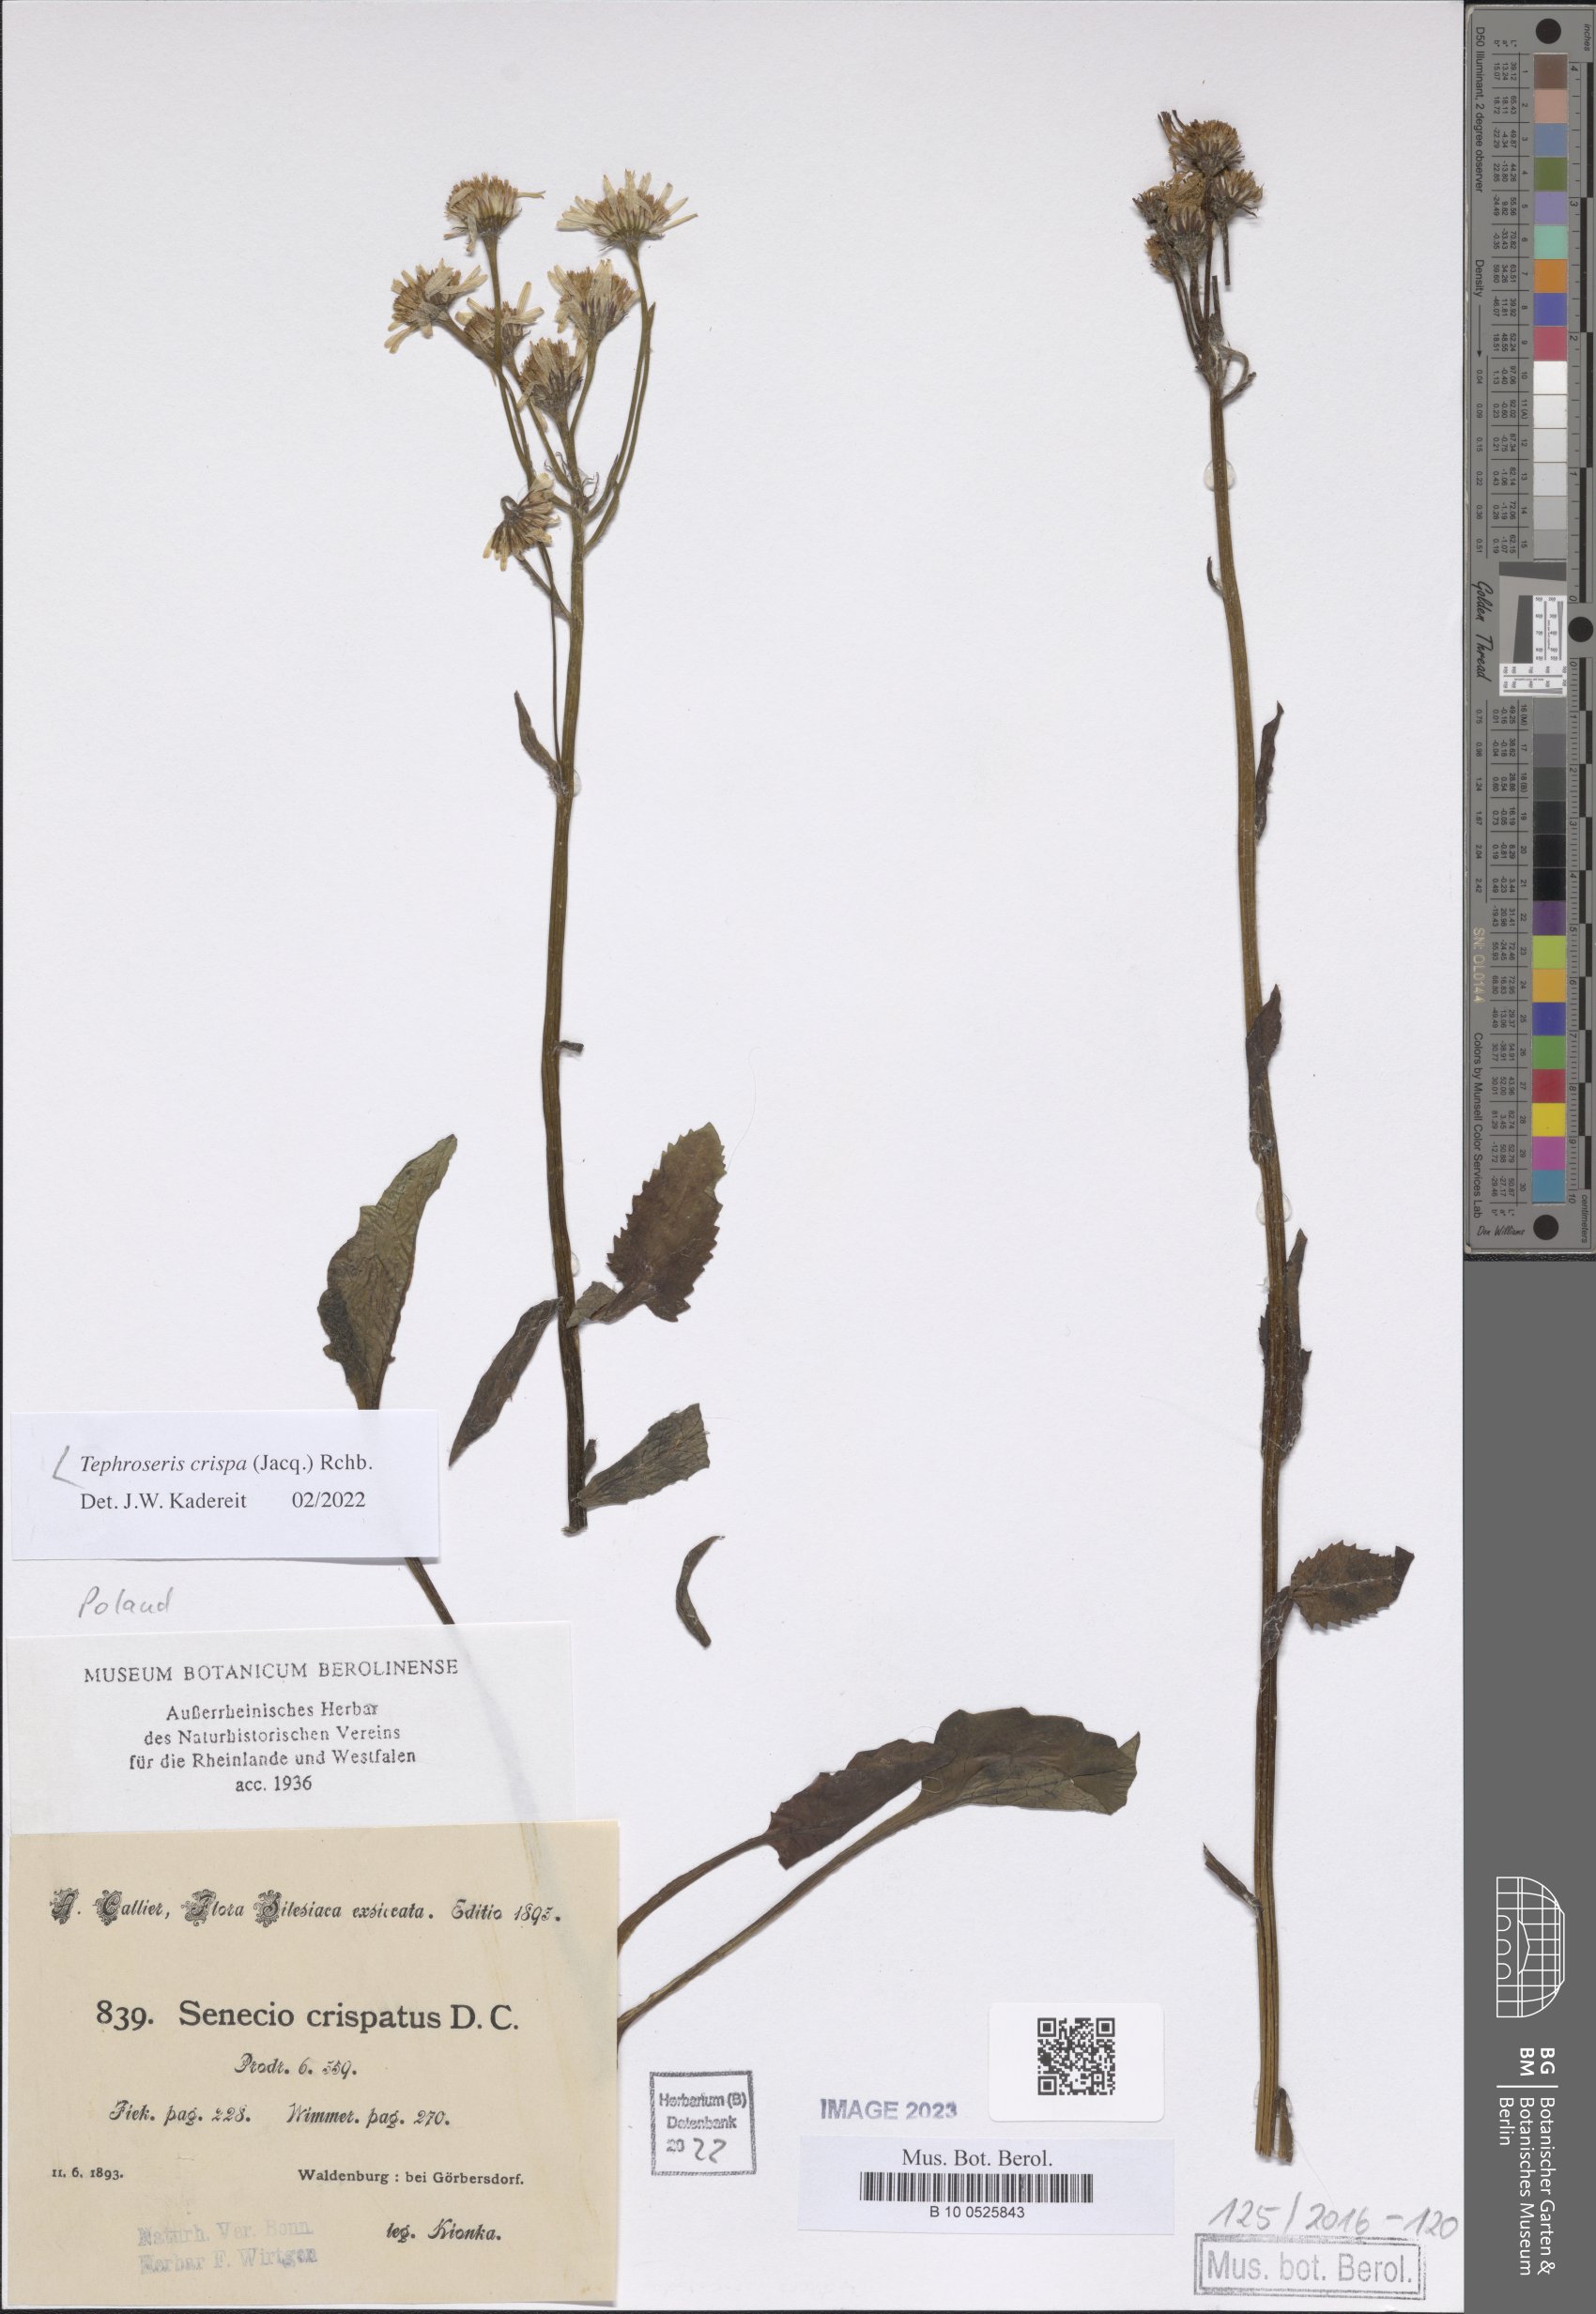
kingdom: Plantae
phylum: Tracheophyta
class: Magnoliopsida
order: Asterales
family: Asteraceae
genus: Tephroseris
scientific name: Tephroseris crispa
